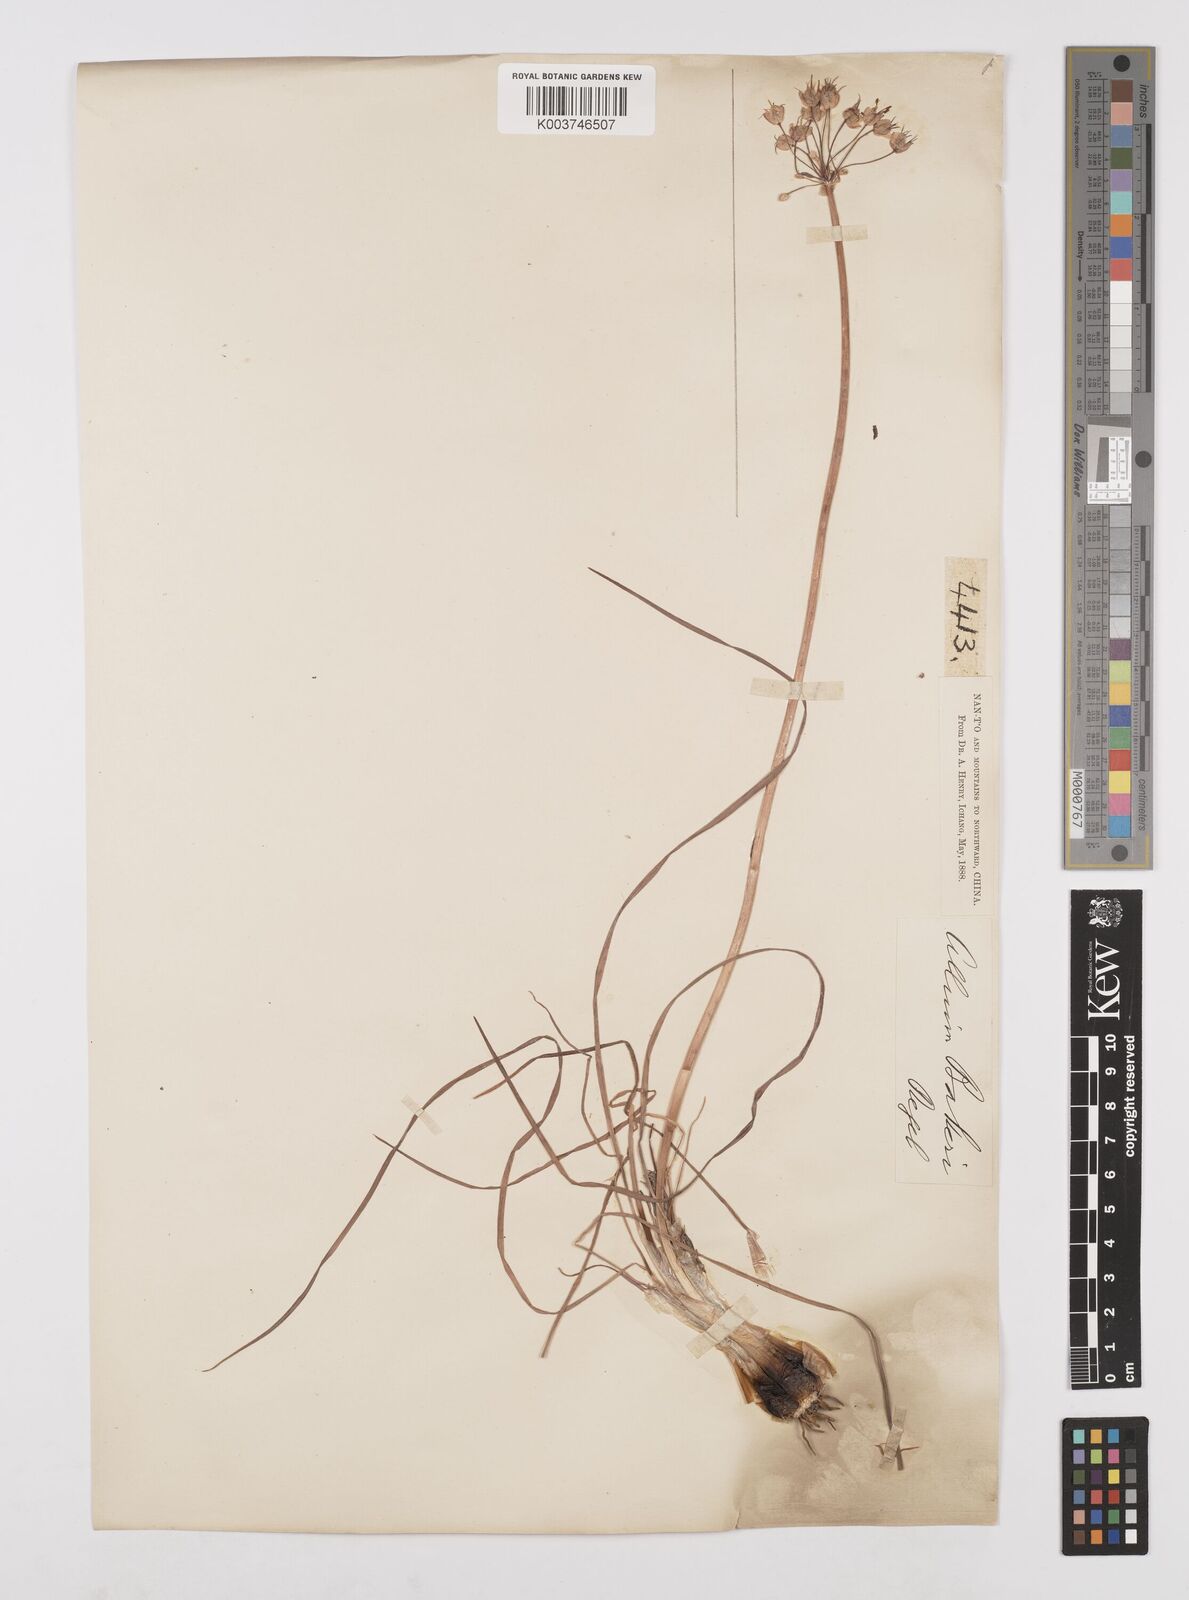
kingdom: Plantae
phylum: Tracheophyta
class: Liliopsida
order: Asparagales
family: Amaryllidaceae
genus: Allium
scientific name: Allium chinense
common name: Japanese scallion
